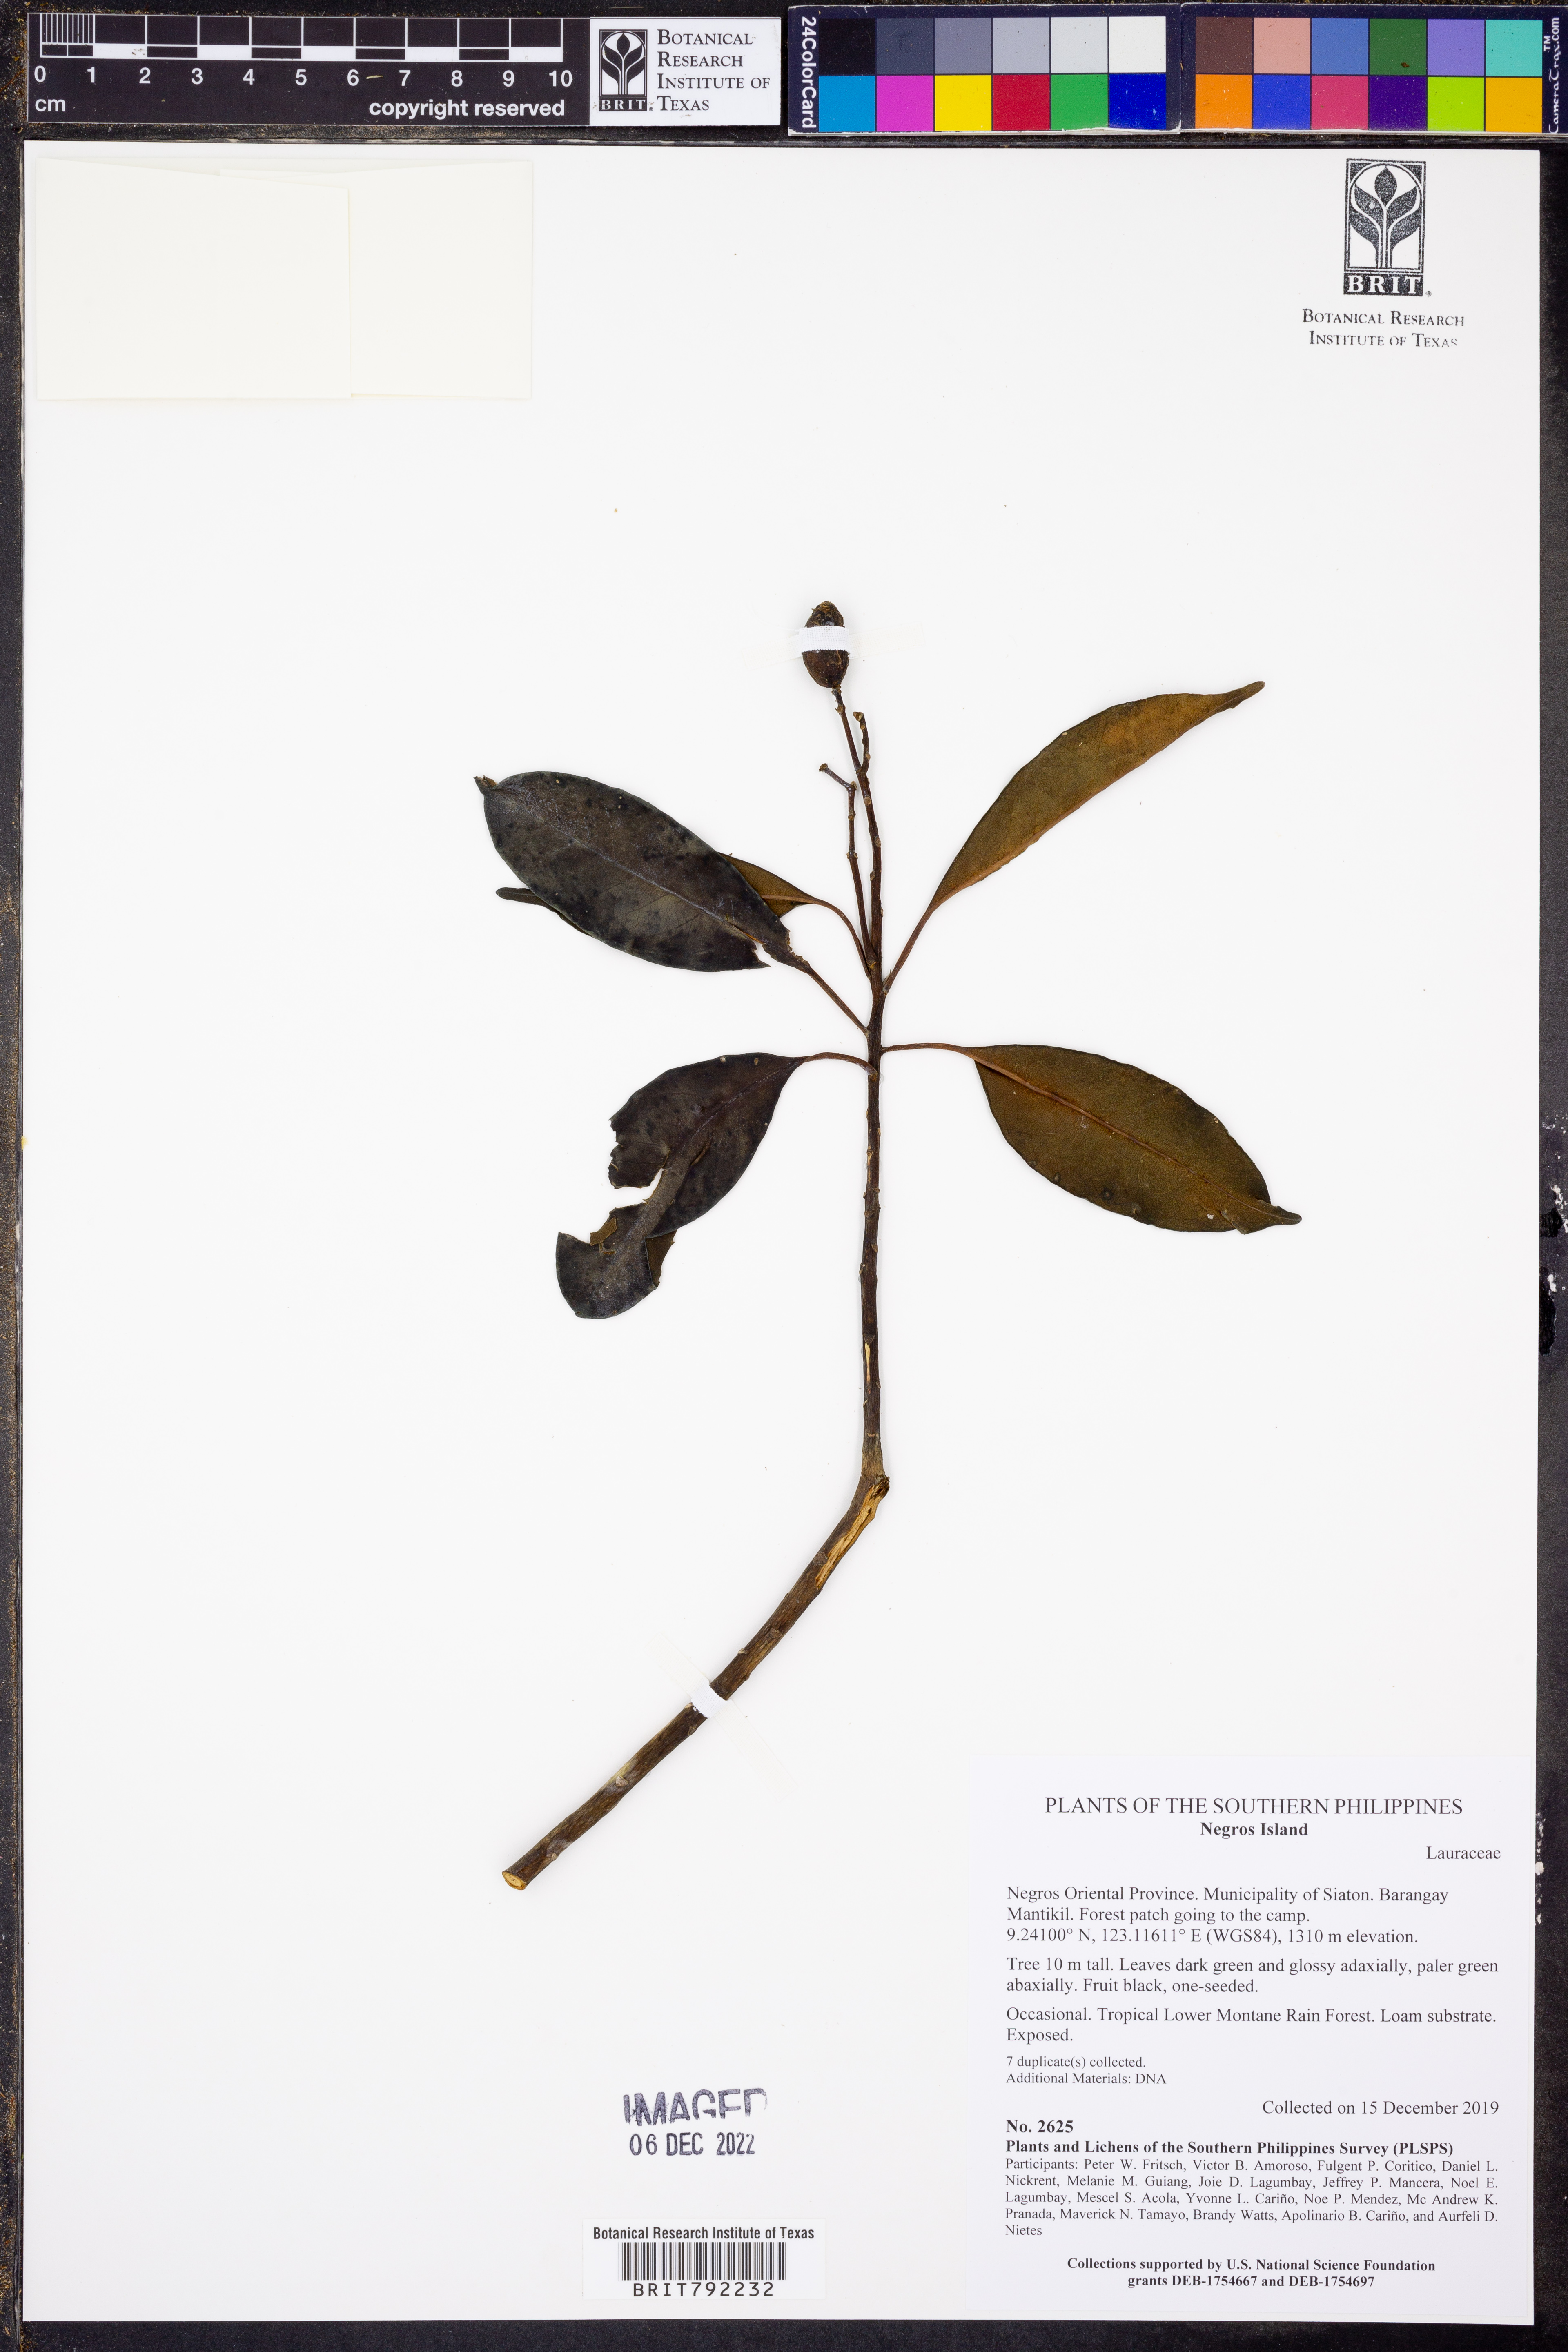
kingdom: Plantae
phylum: Tracheophyta
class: Magnoliopsida
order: Laurales
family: Lauraceae
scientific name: Lauraceae
